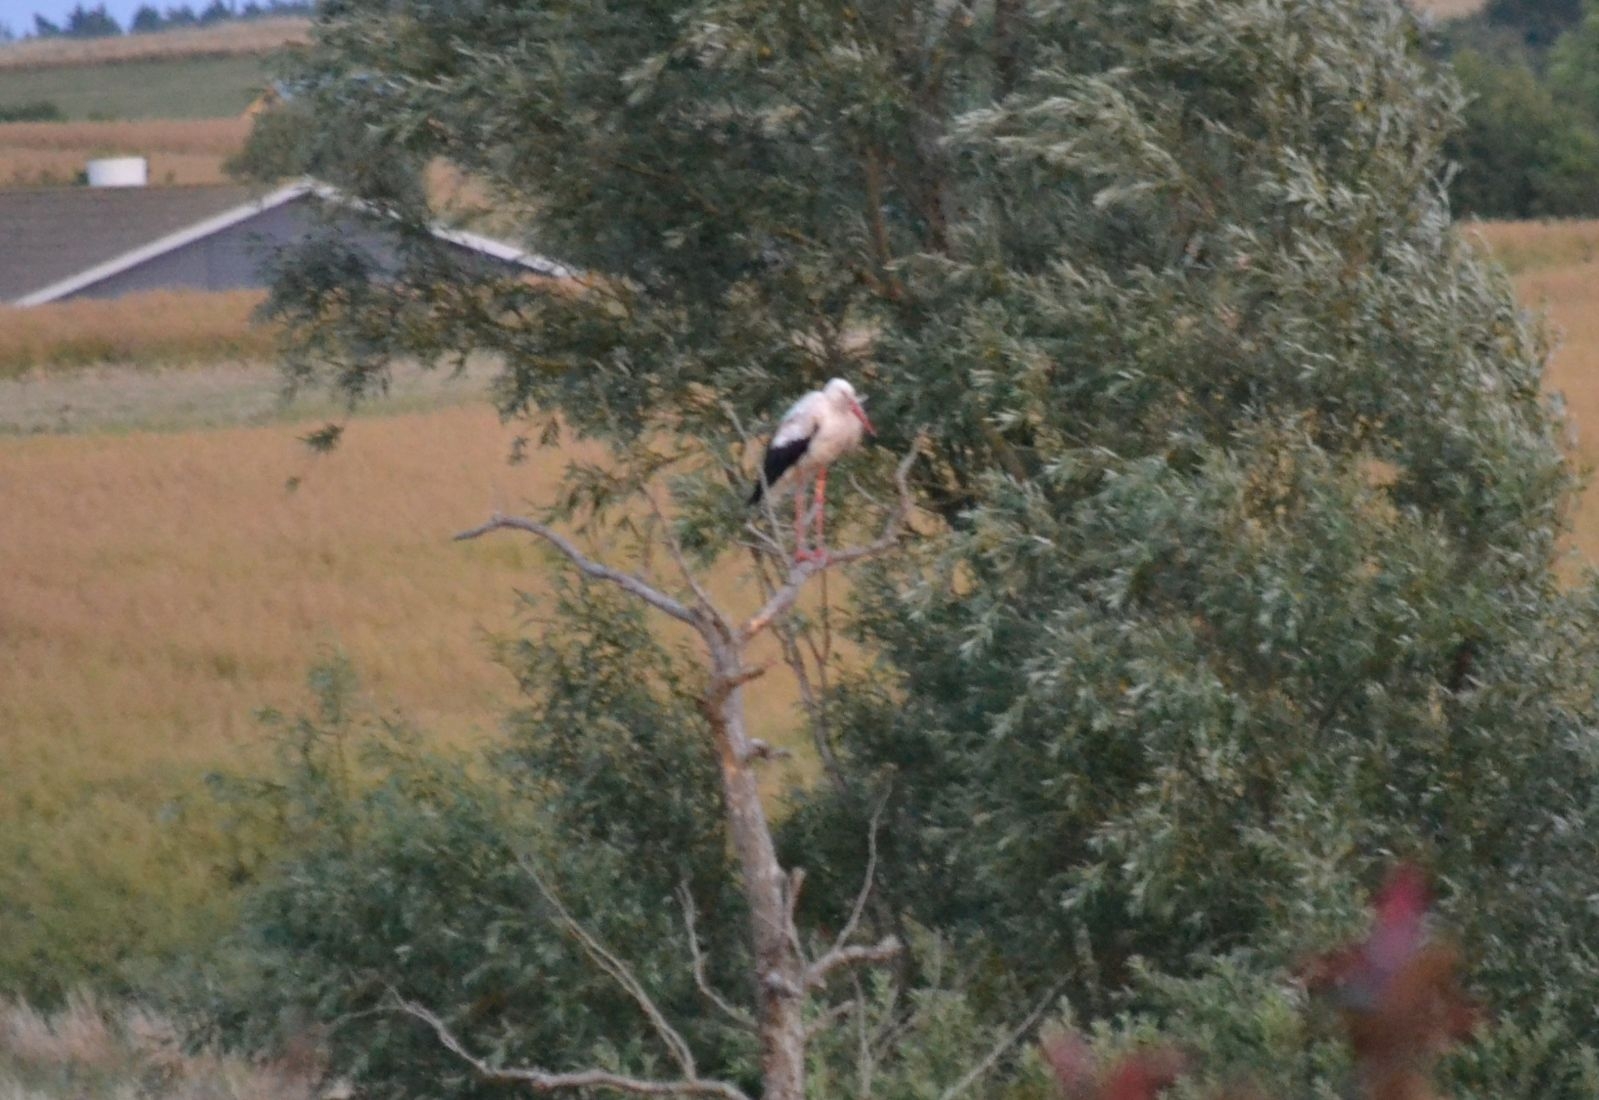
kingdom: Animalia
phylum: Chordata
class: Aves
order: Ciconiiformes
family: Ciconiidae
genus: Ciconia
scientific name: Ciconia ciconia
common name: Hvid stork
